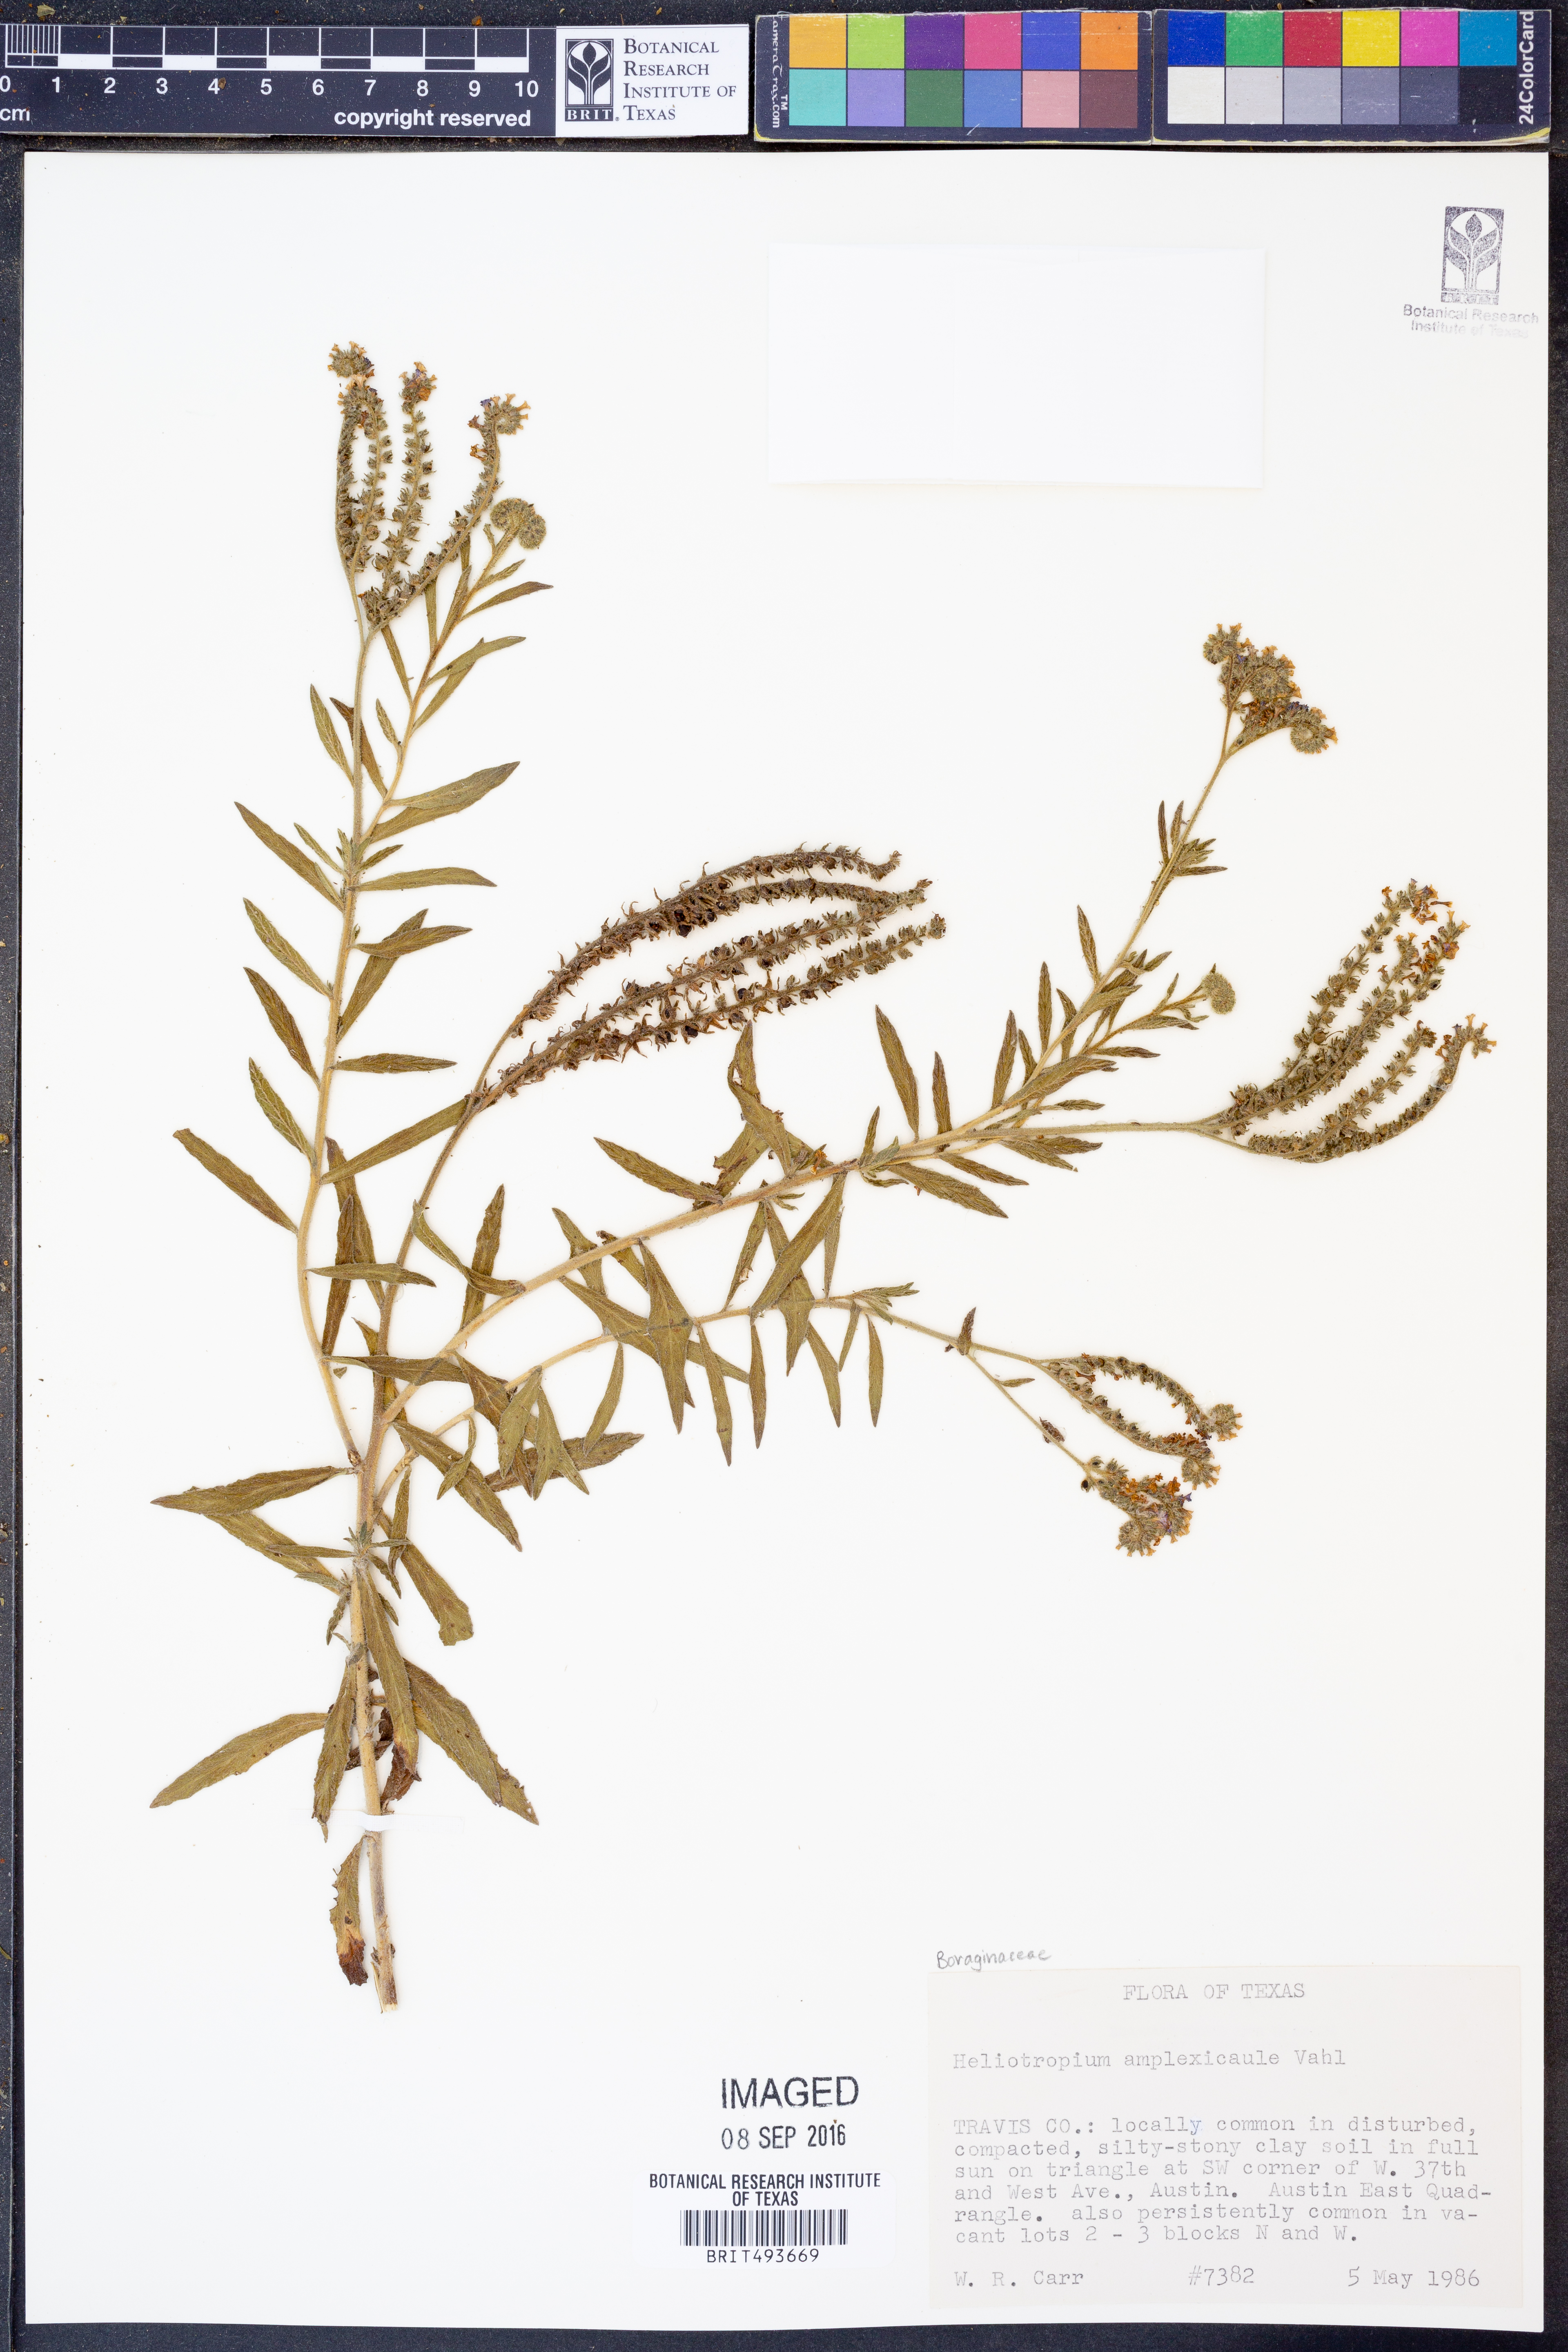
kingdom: Plantae
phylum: Tracheophyta
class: Magnoliopsida
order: Boraginales
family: Heliotropiaceae
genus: Heliotropium
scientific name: Heliotropium amplexicaule
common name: Clasping heliotrope
